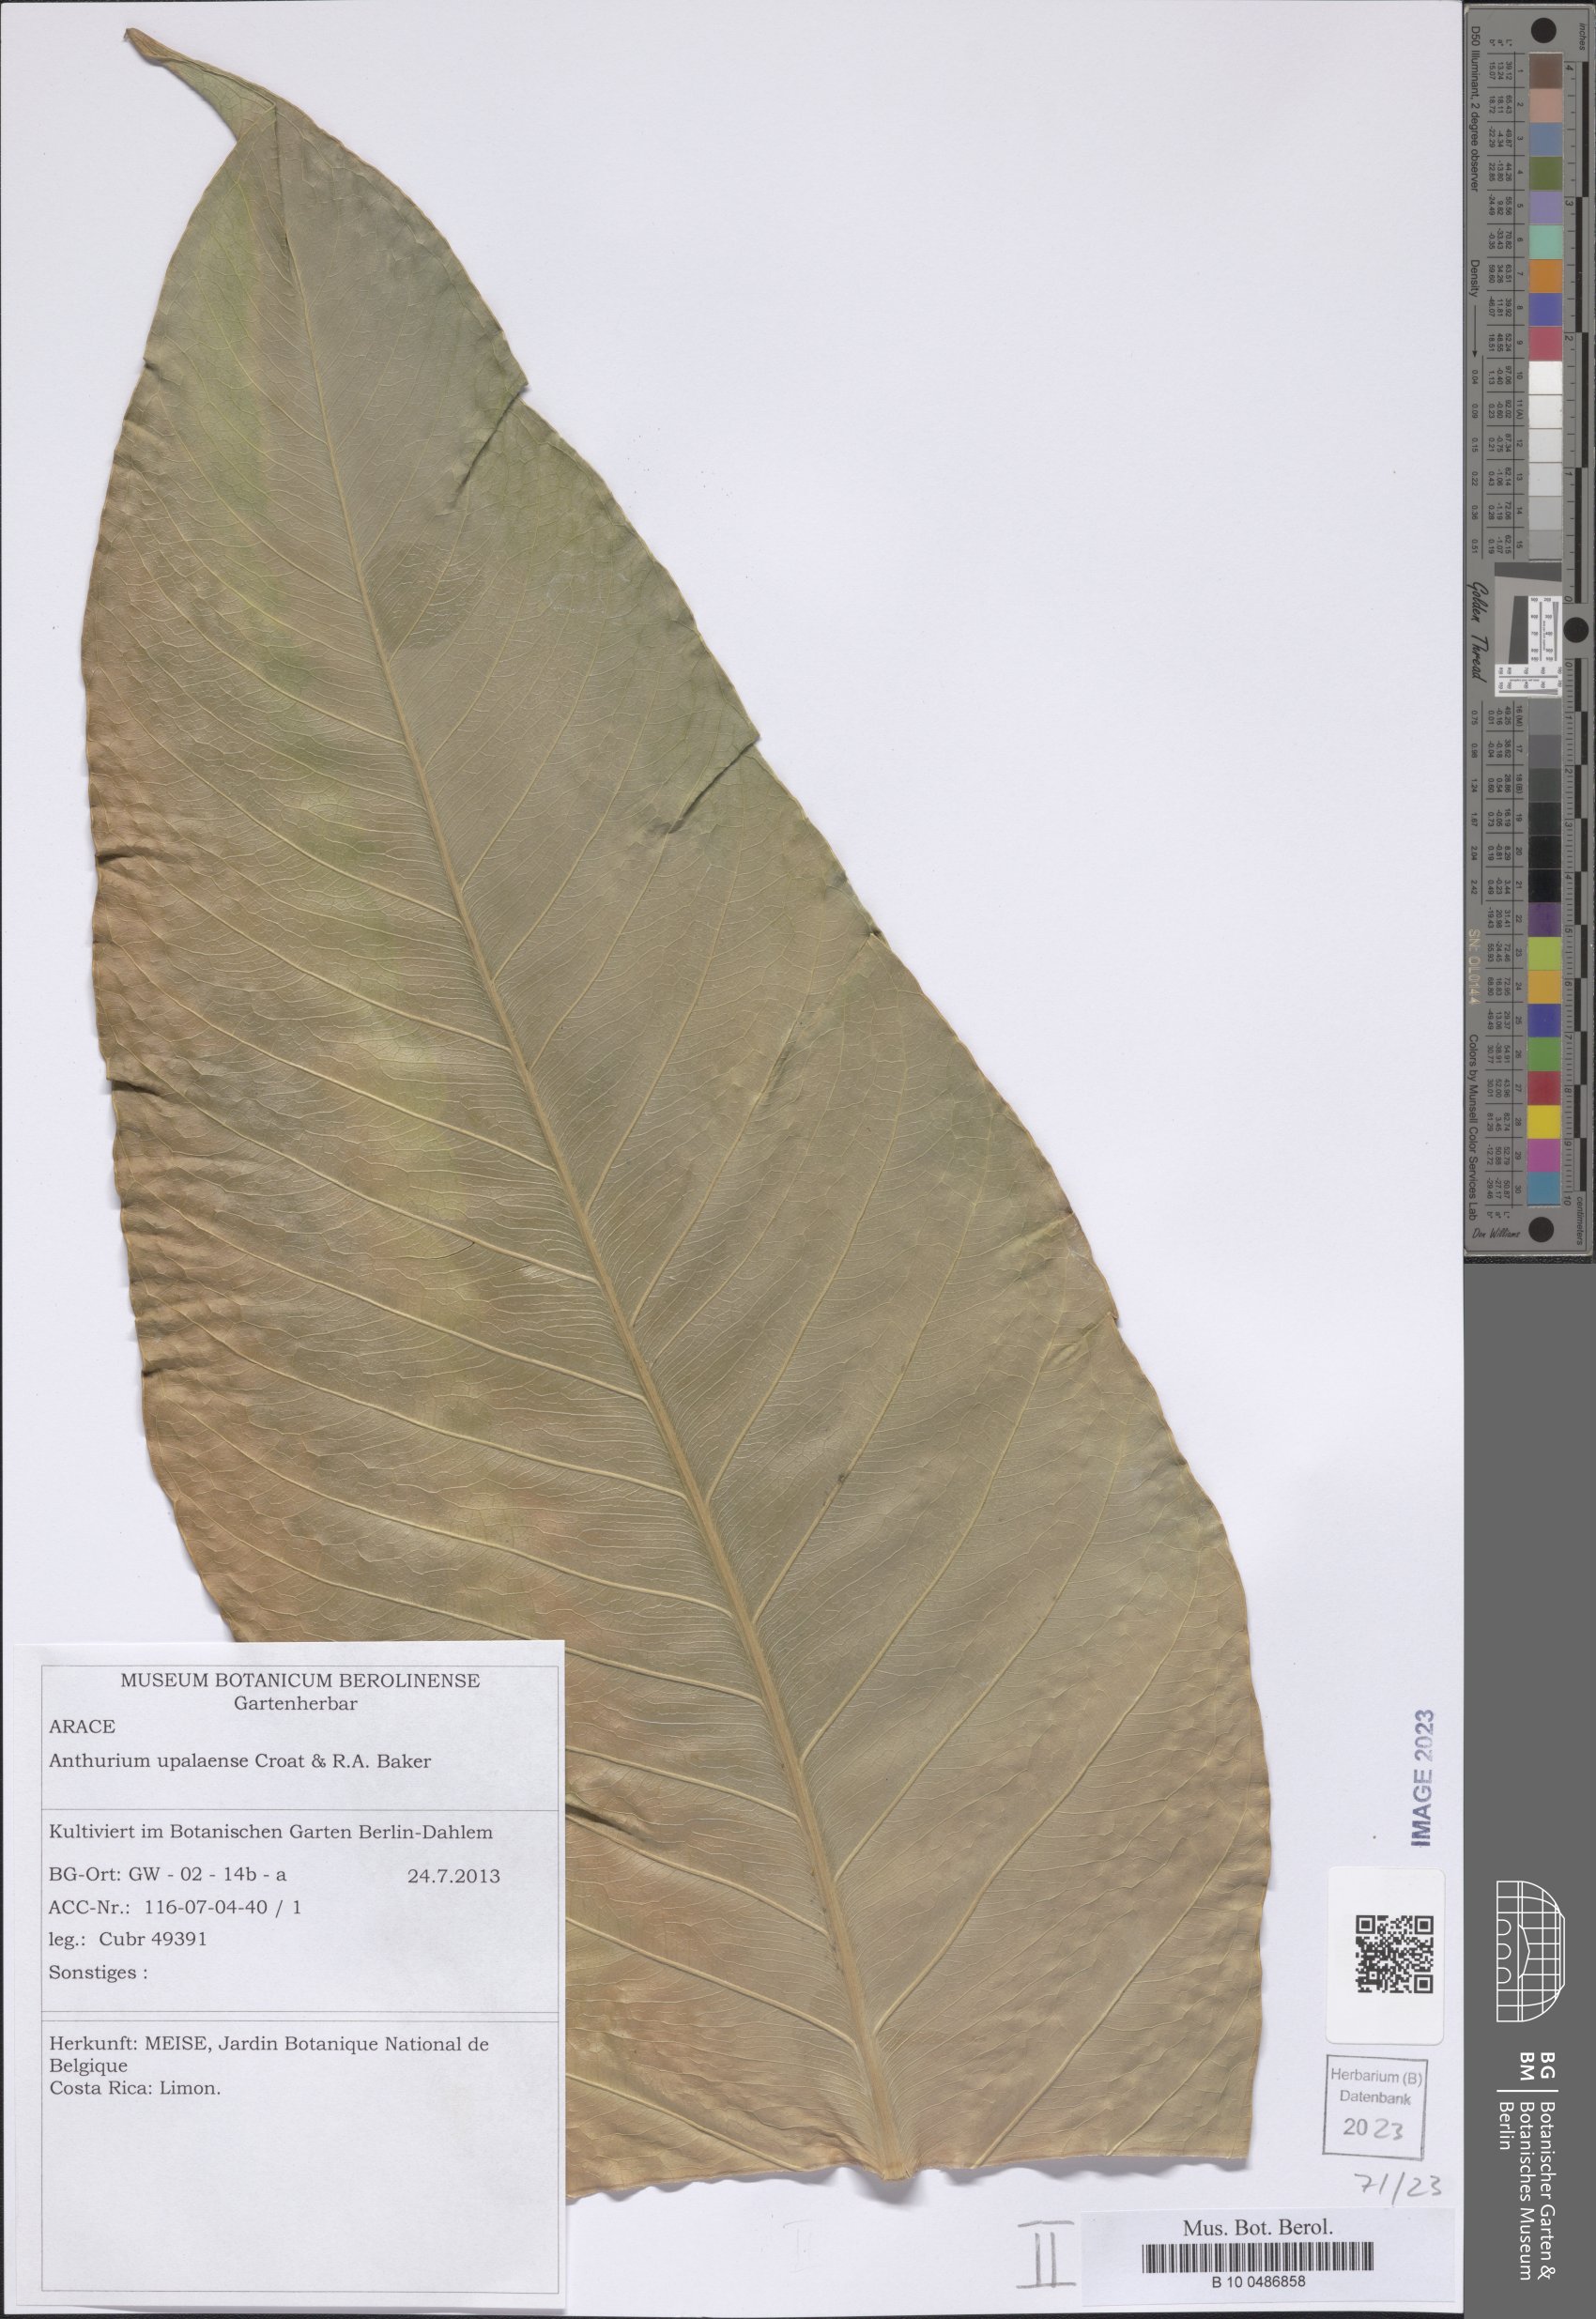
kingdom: Plantae
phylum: Tracheophyta
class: Liliopsida
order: Alismatales
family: Araceae
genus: Anthurium
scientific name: Anthurium upalaense
